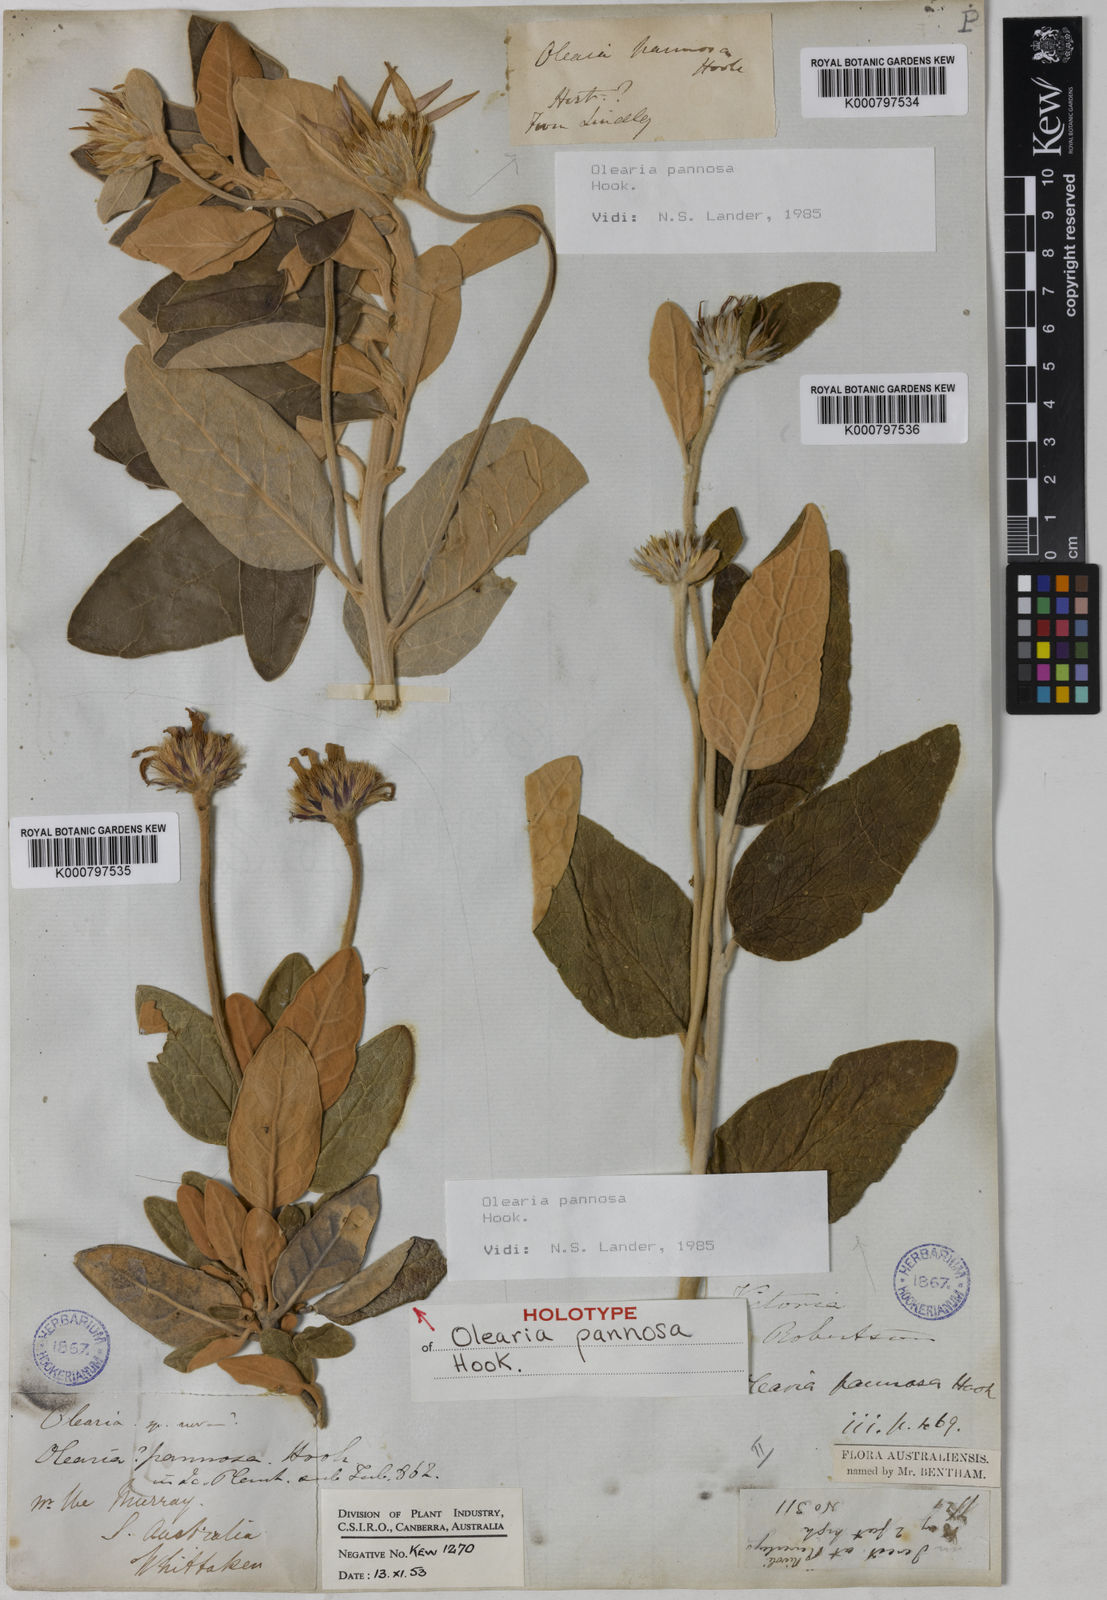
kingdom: Plantae
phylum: Tracheophyta
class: Magnoliopsida
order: Asterales
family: Asteraceae
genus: Olearia
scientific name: Olearia pannosa
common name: Velvet daisybush
